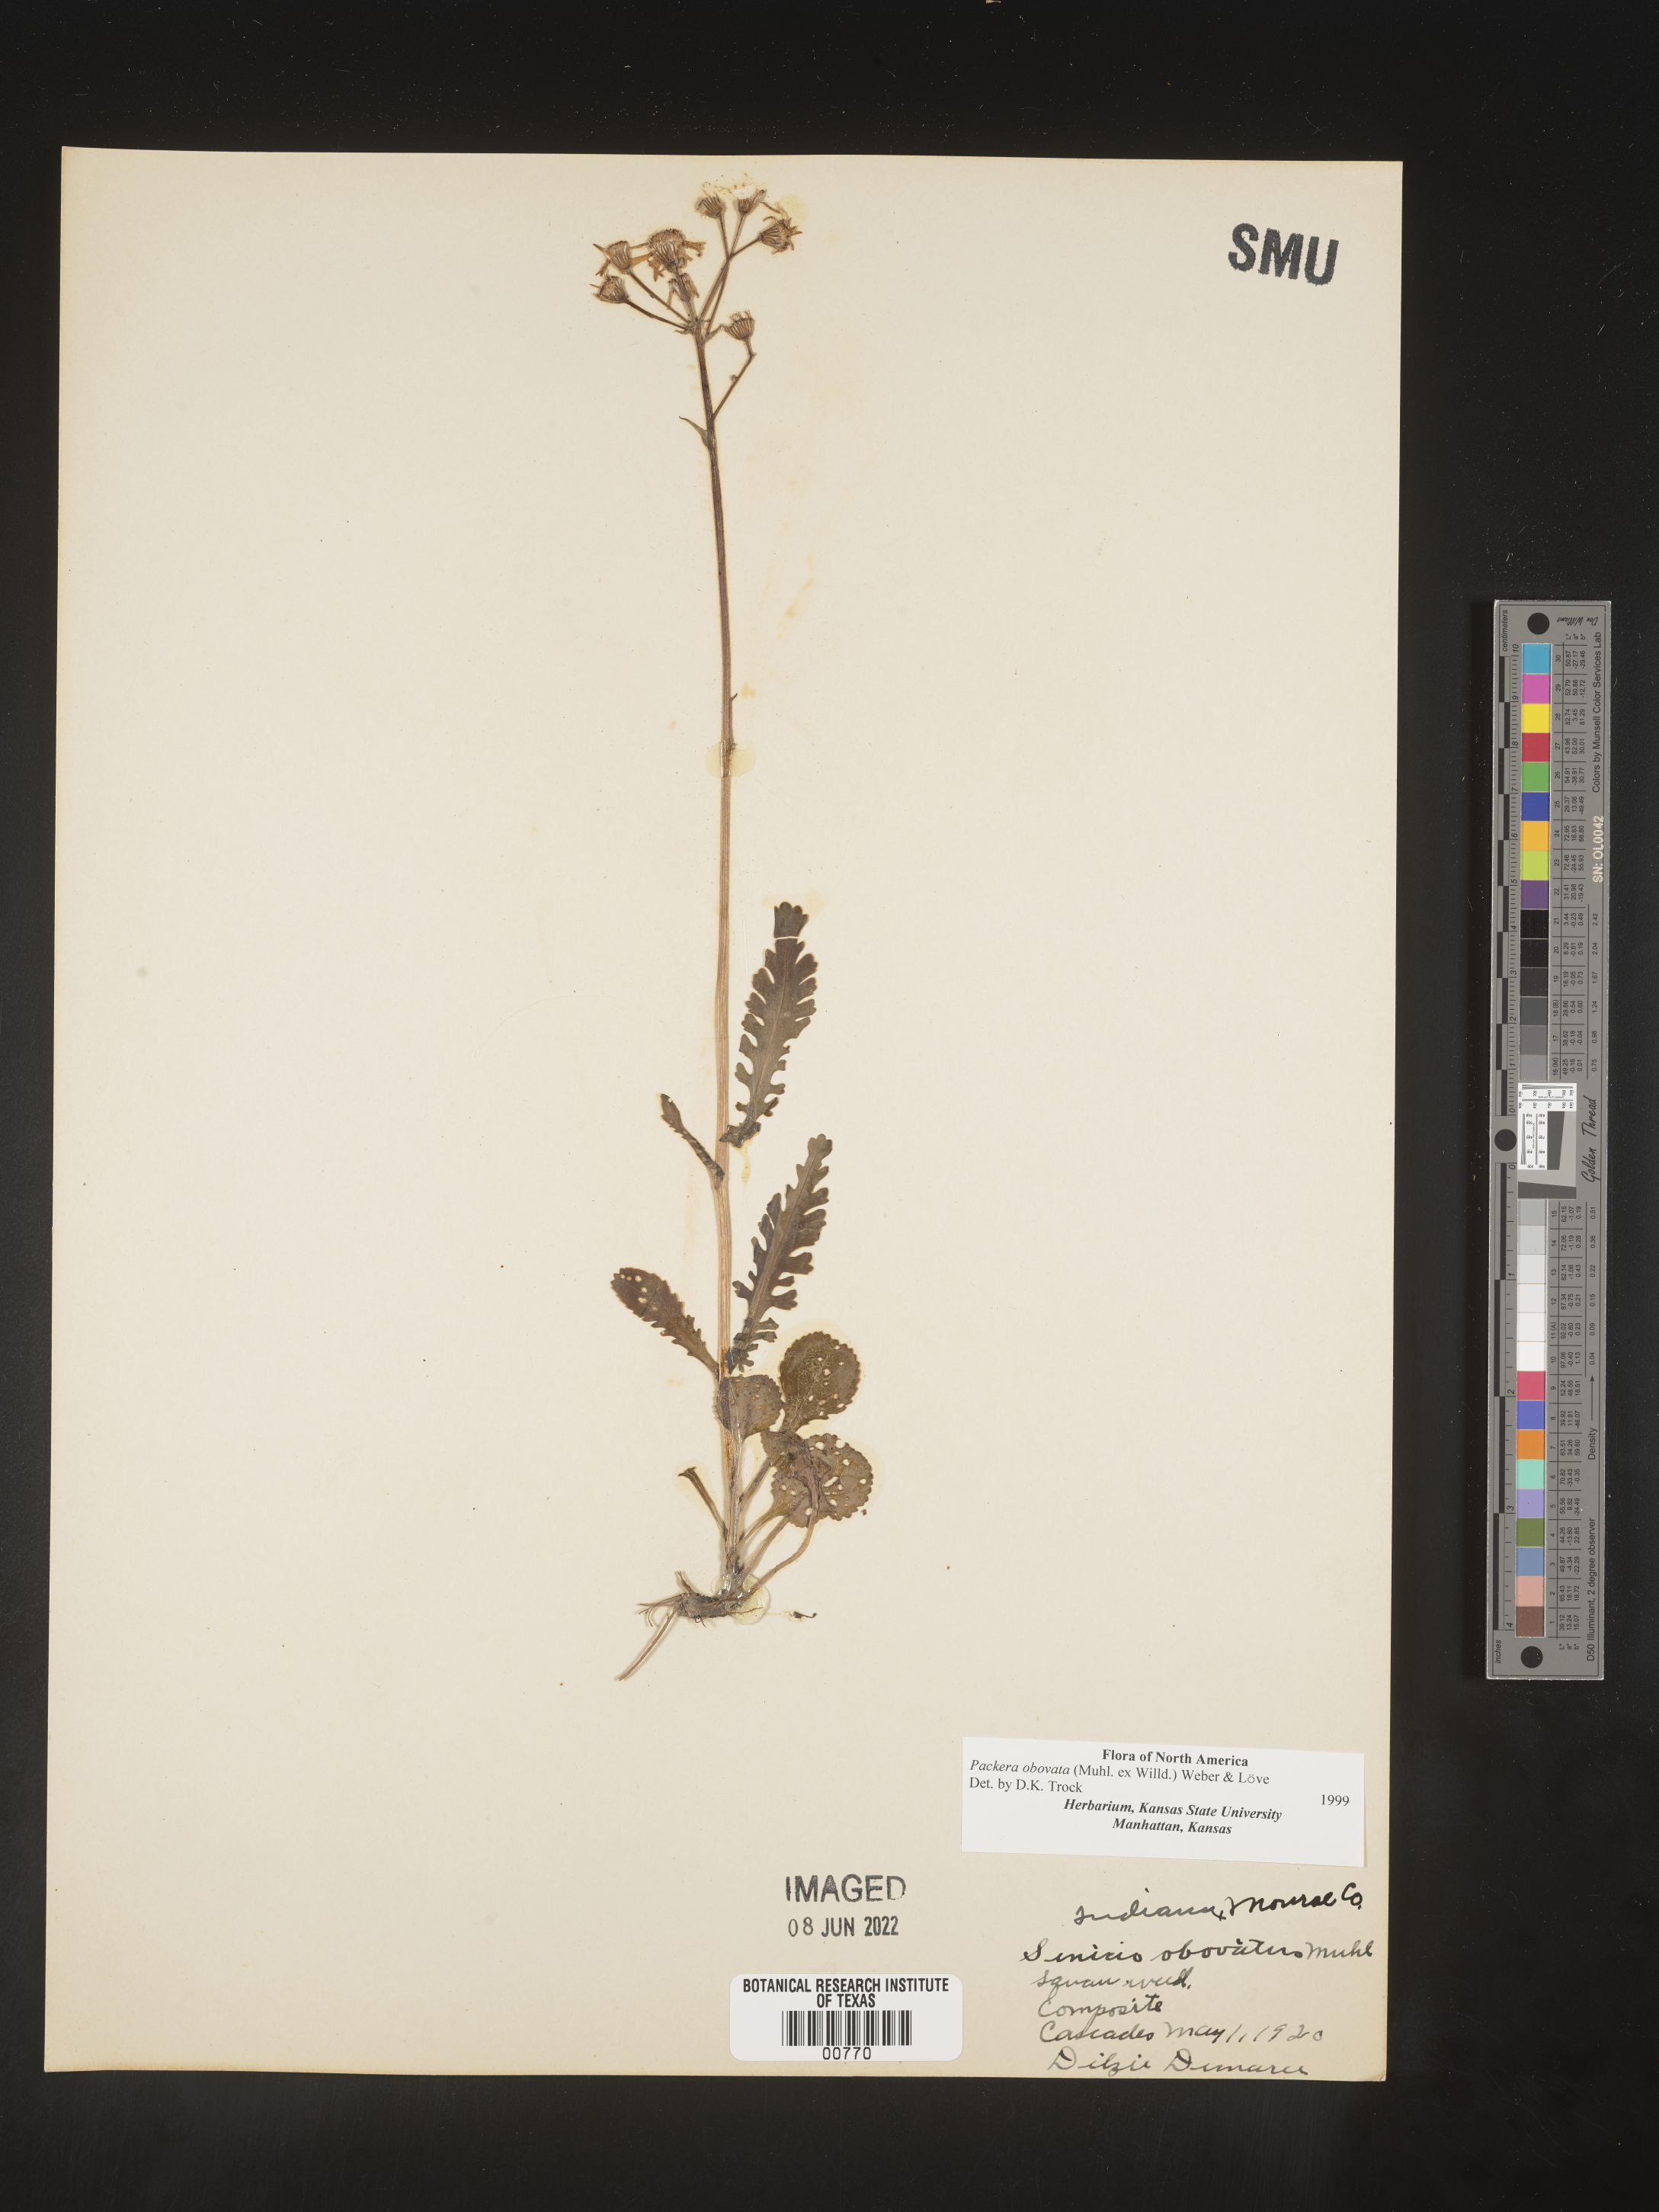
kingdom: Plantae
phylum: Tracheophyta
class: Magnoliopsida
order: Asterales
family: Asteraceae
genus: Packera
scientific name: Packera obovata
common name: Round-leaf ragwort
